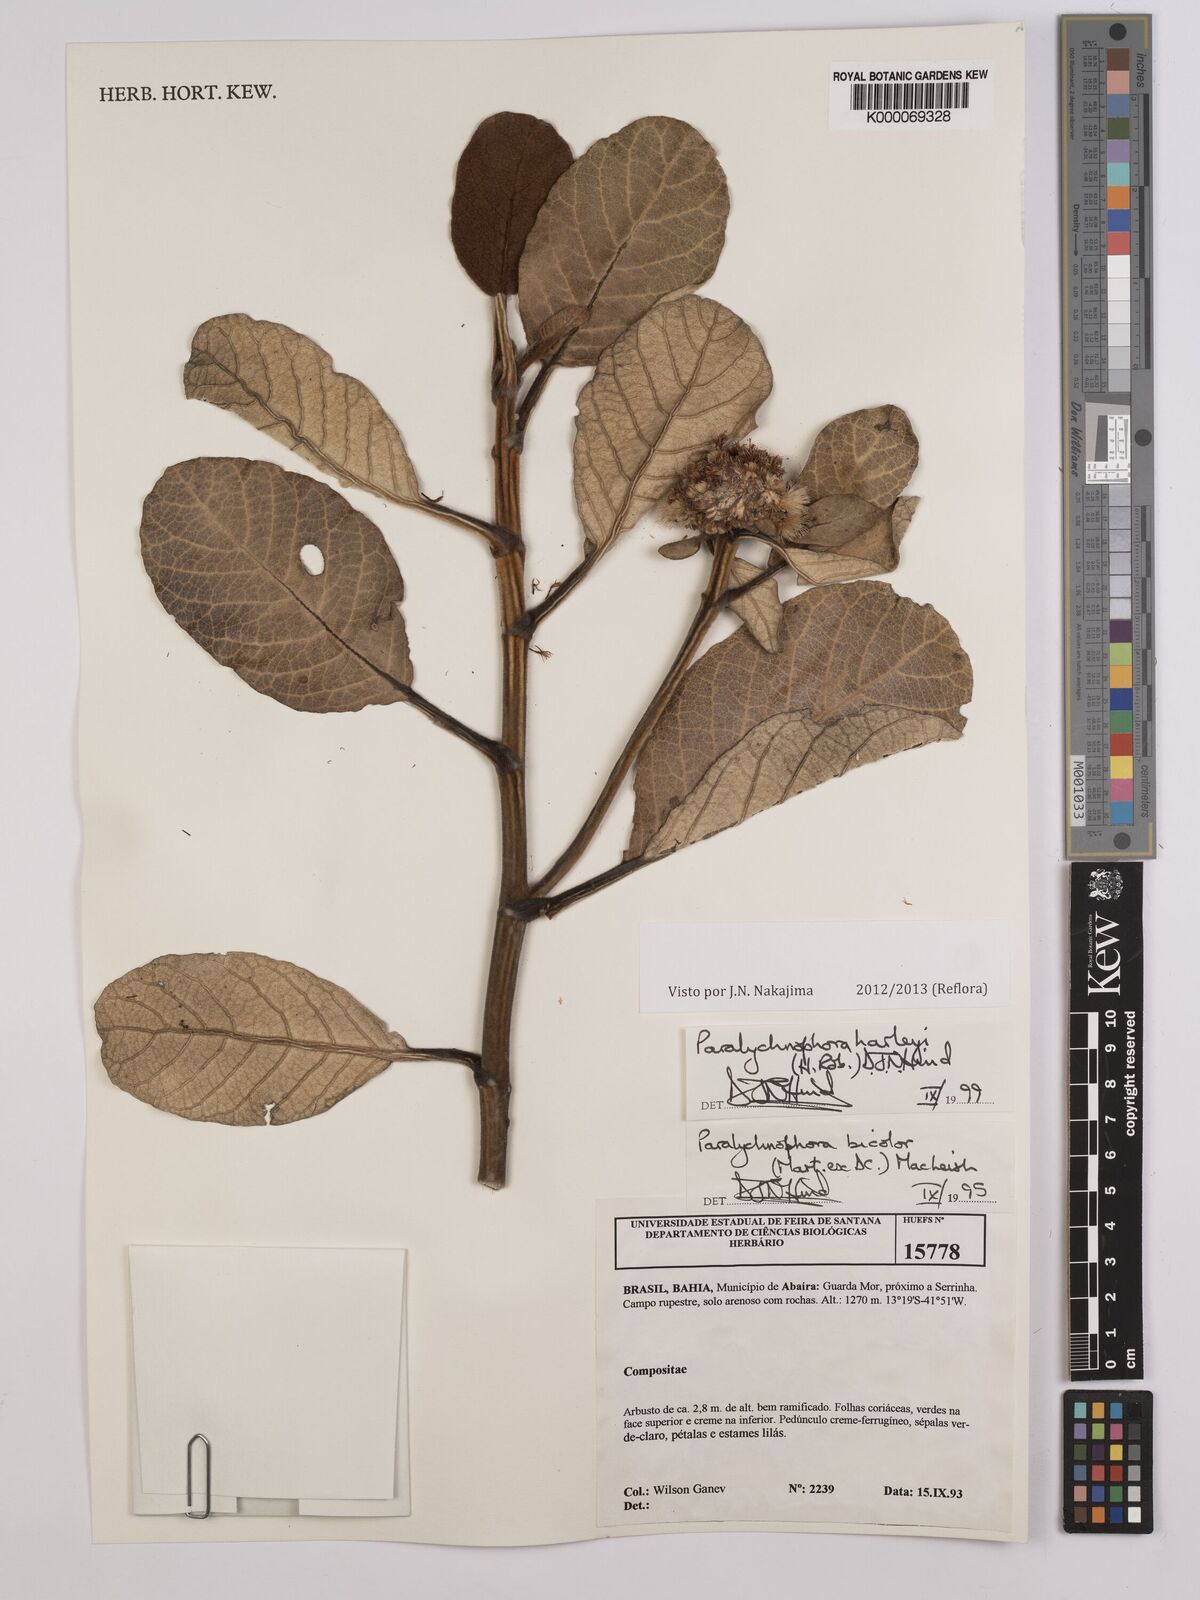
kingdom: Plantae
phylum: Tracheophyta
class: Magnoliopsida
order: Asterales
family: Asteraceae
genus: Paralychnophora
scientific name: Paralychnophora harleyi
